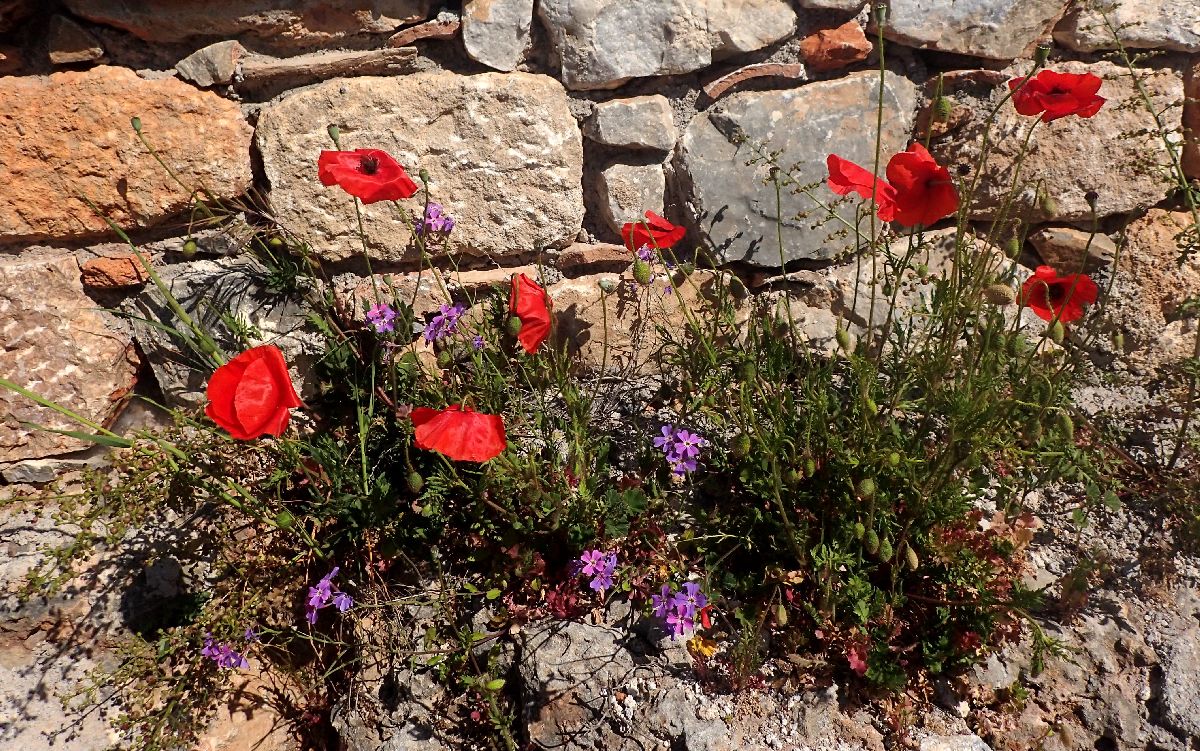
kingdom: Plantae
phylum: Tracheophyta
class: Magnoliopsida
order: Ranunculales
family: Papaveraceae
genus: Papaver
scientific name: Papaver rhoeas
